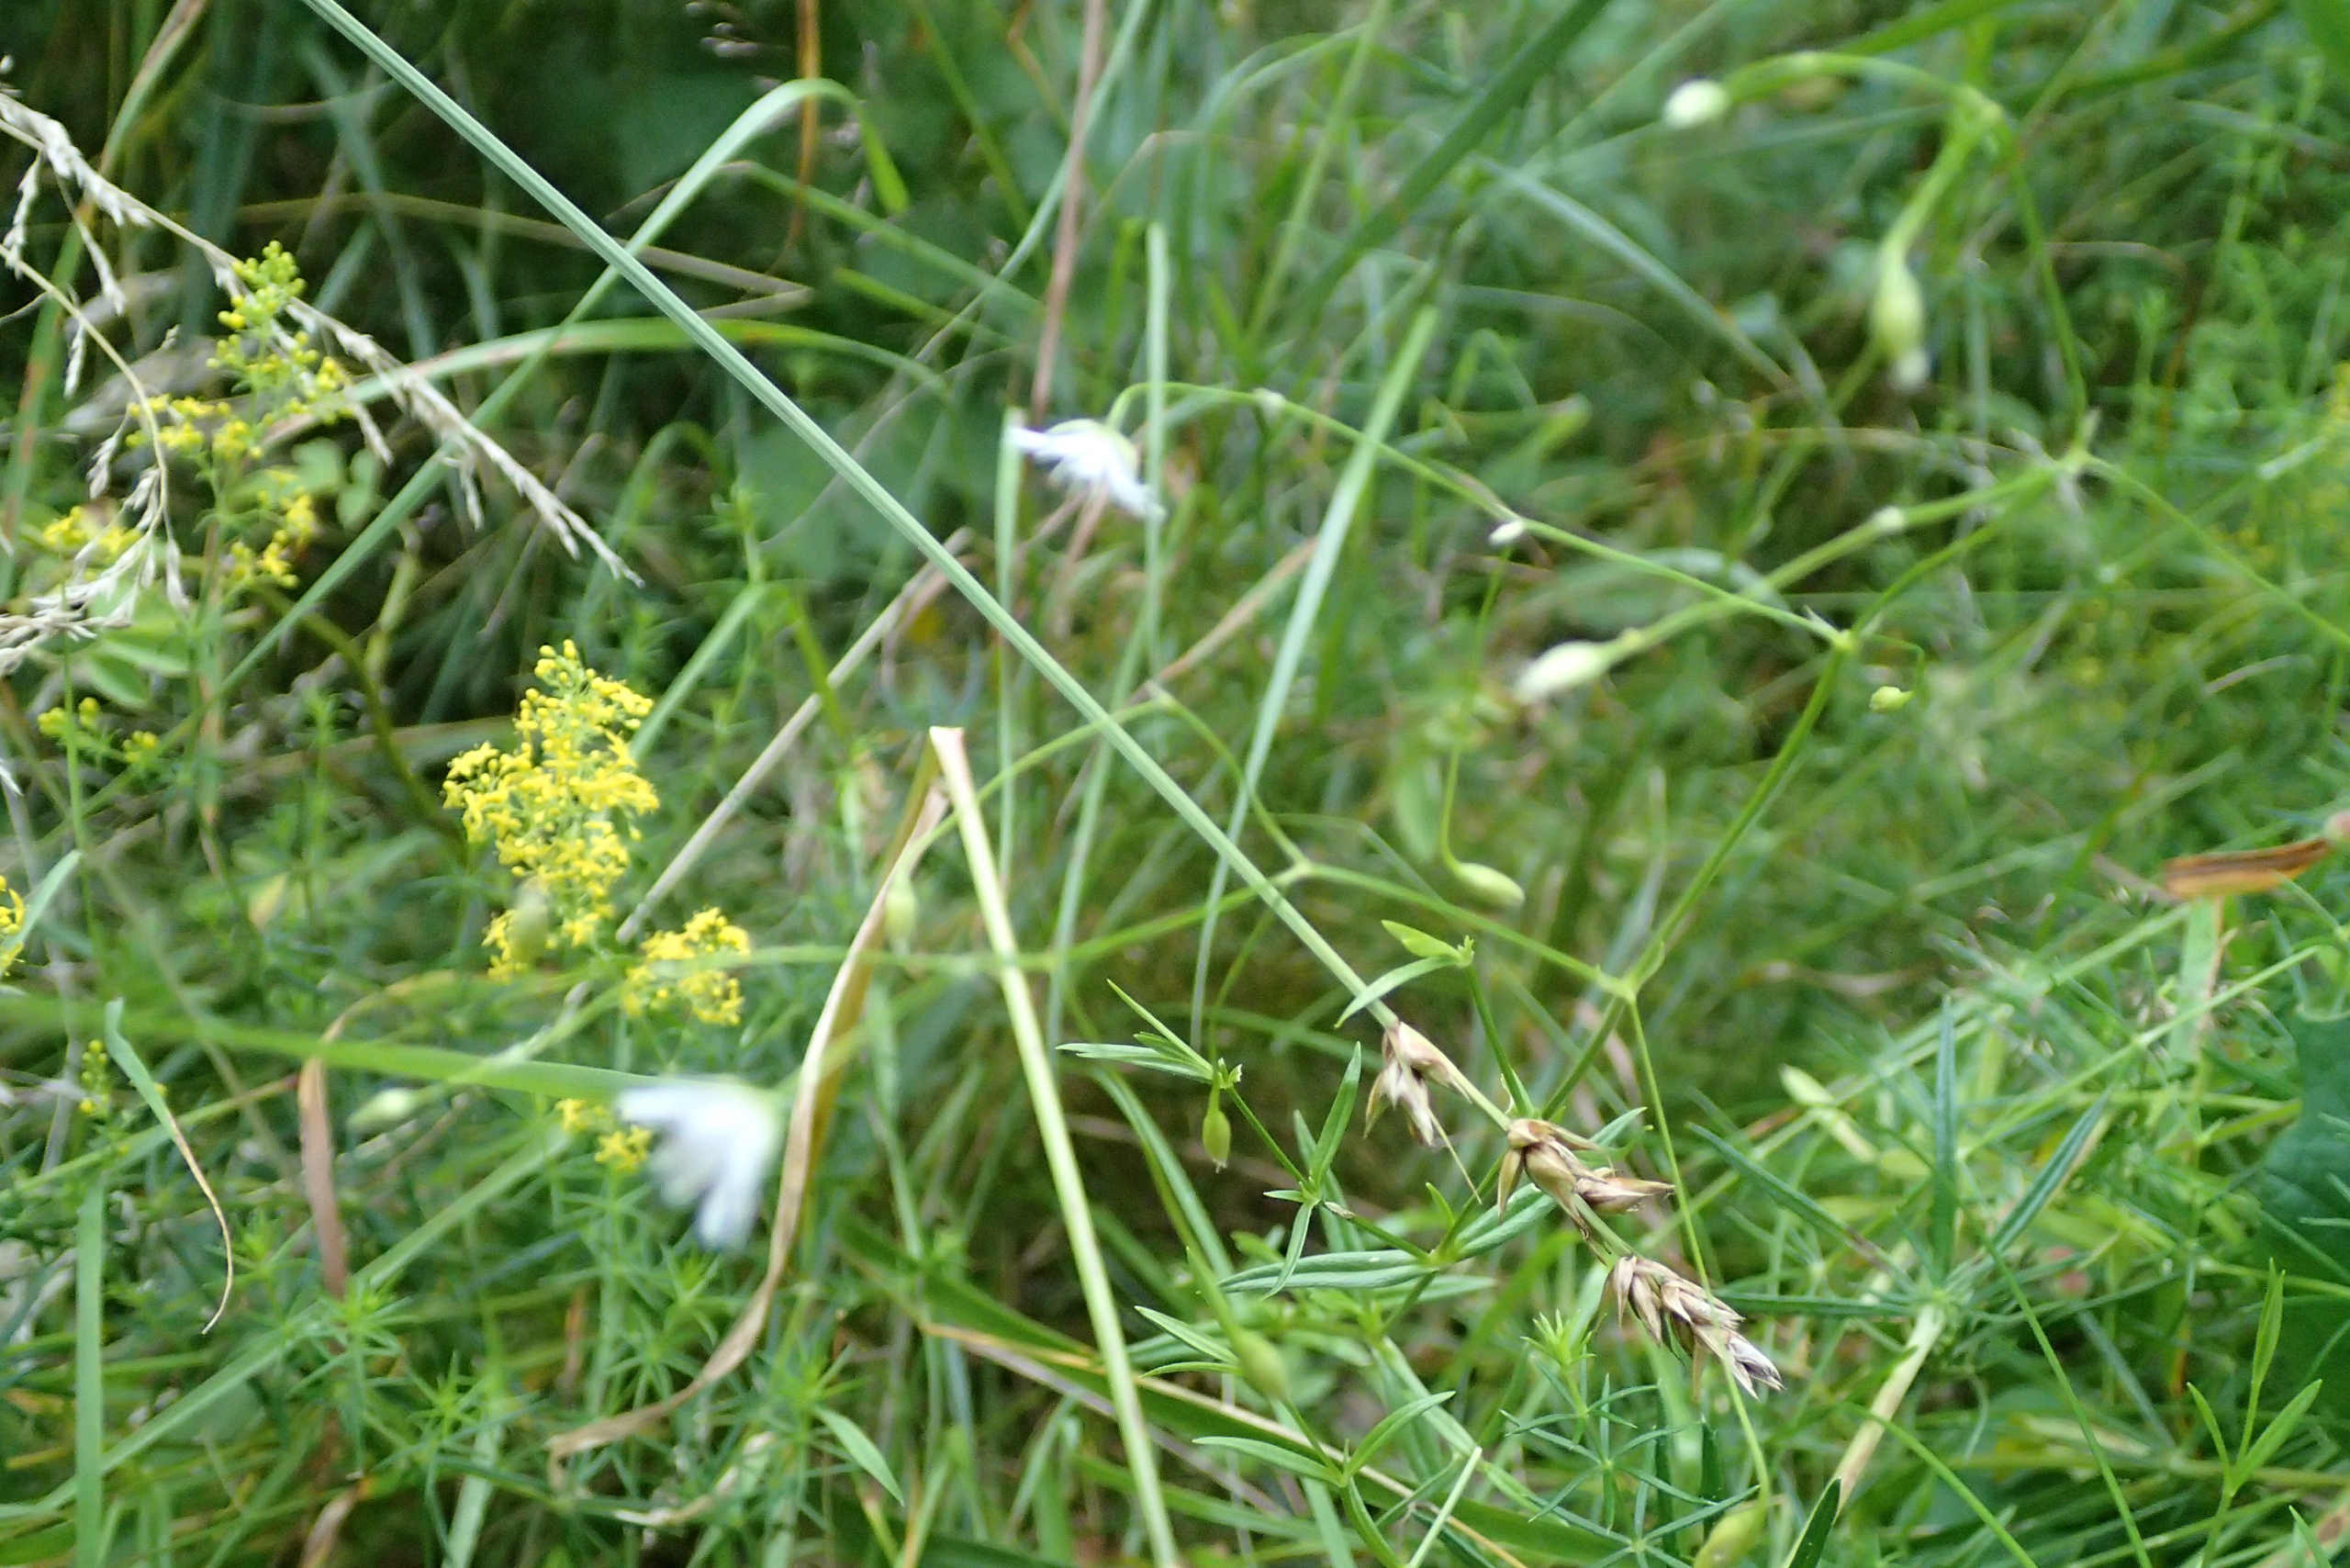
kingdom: Plantae
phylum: Tracheophyta
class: Magnoliopsida
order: Caryophyllales
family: Caryophyllaceae
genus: Stellaria
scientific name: Stellaria graminea
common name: Græsbladet fladstjerne
